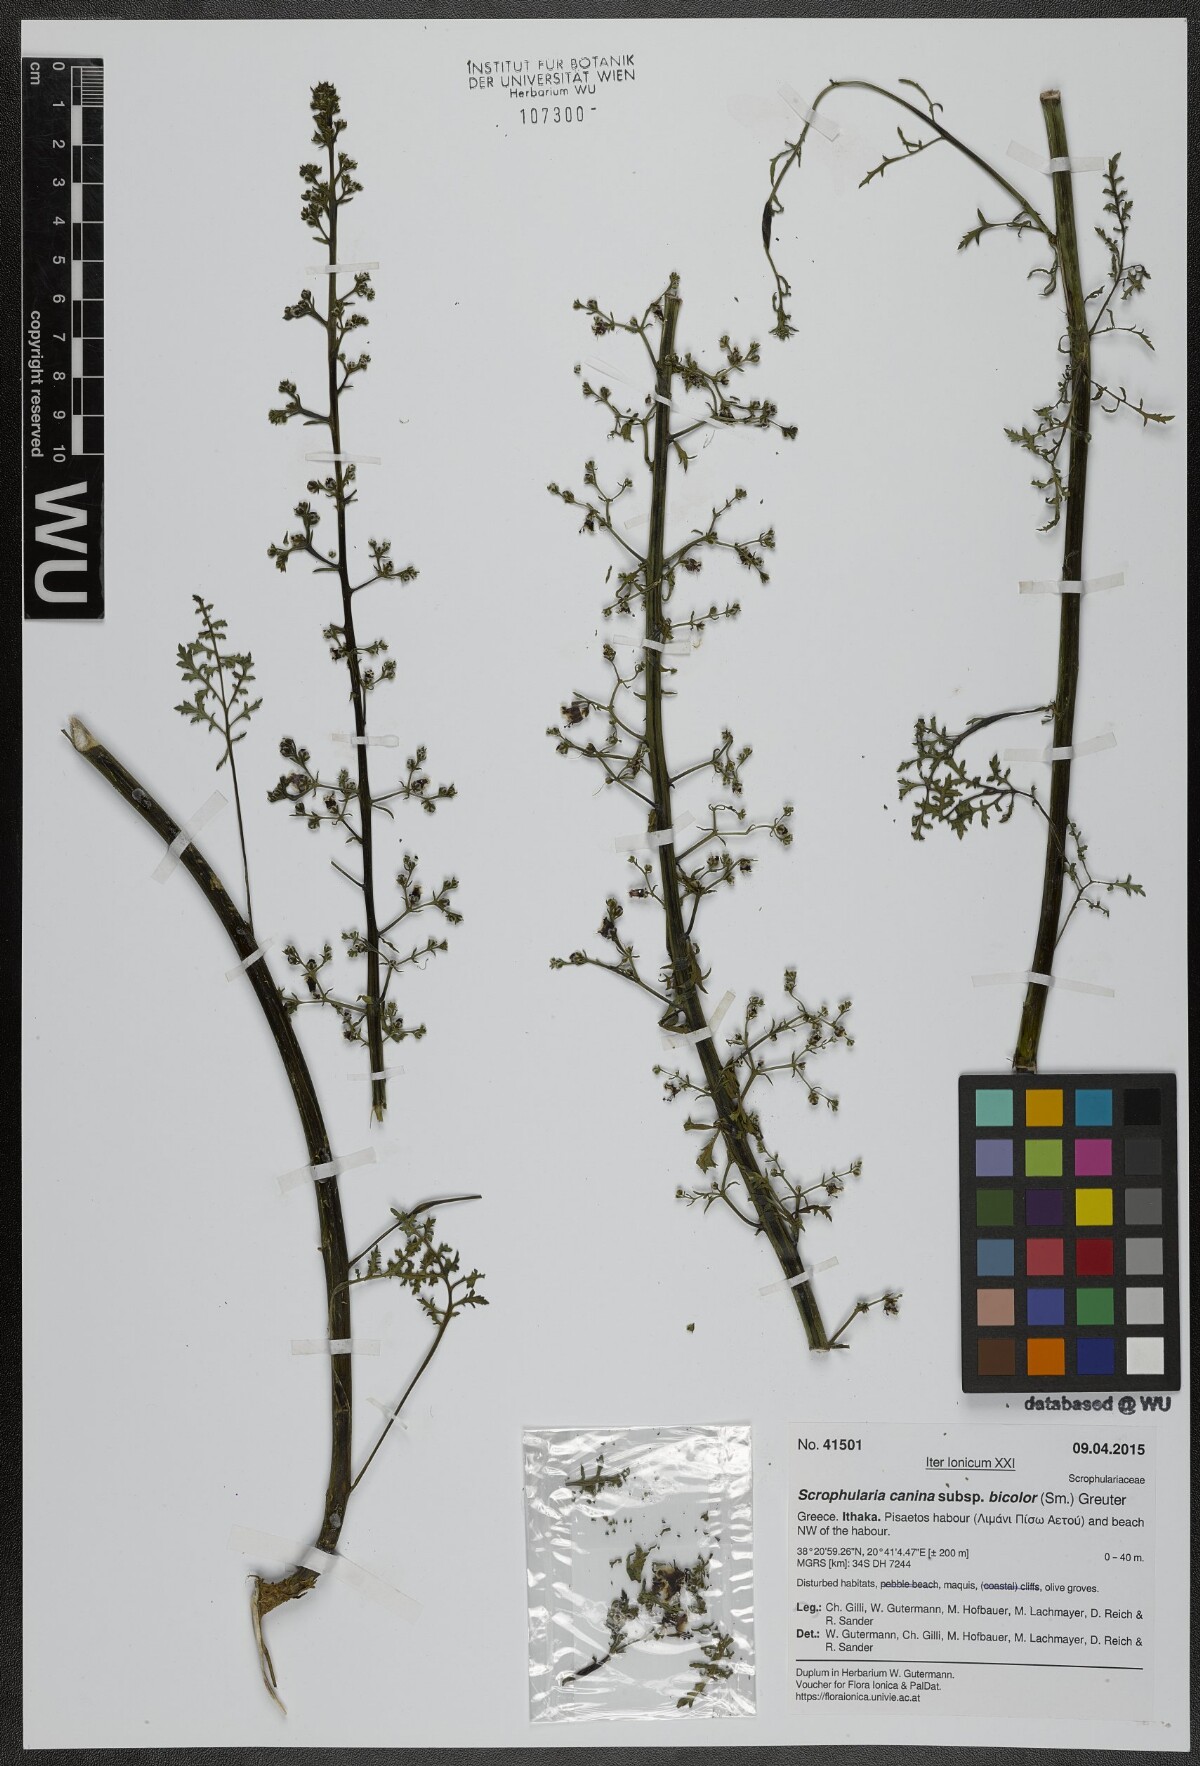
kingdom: Plantae
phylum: Tracheophyta
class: Magnoliopsida
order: Lamiales
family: Scrophulariaceae
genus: Scrophularia
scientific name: Scrophularia canina
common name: French figwort
